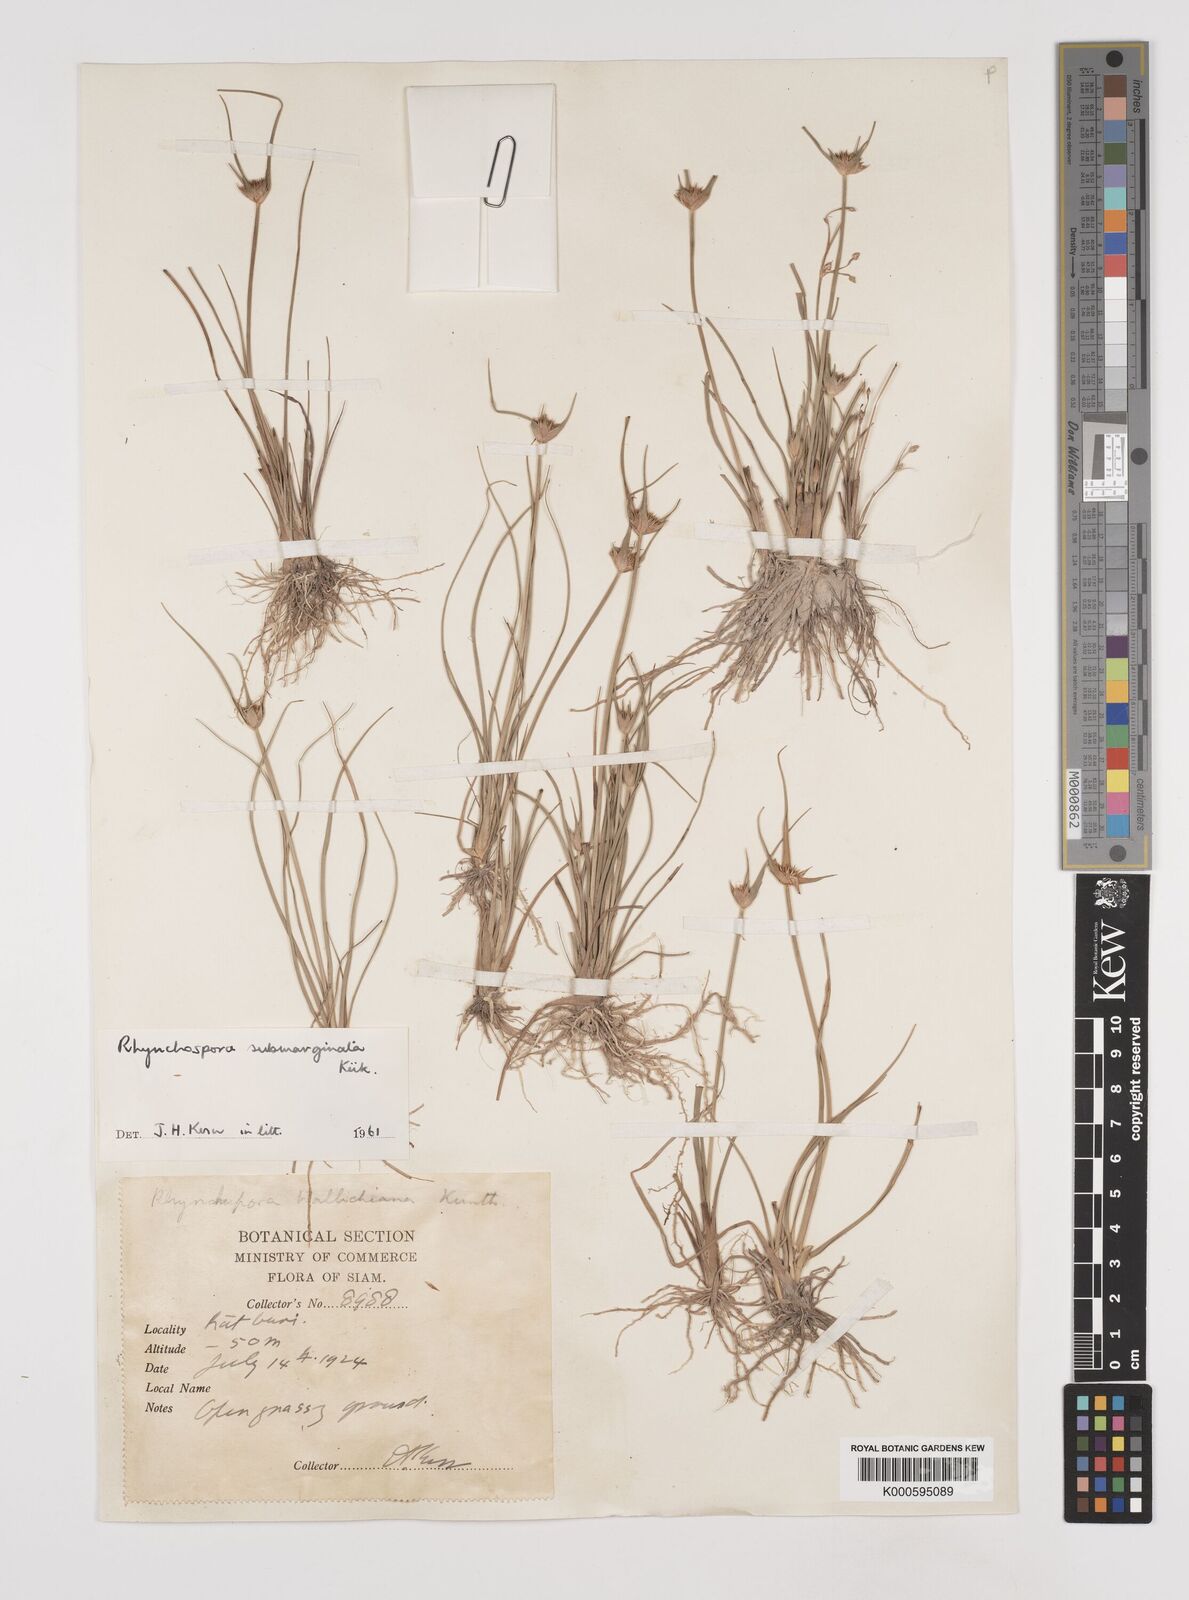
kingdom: Plantae
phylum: Tracheophyta
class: Liliopsida
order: Poales
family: Cyperaceae
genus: Rhynchospora
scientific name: Rhynchospora
